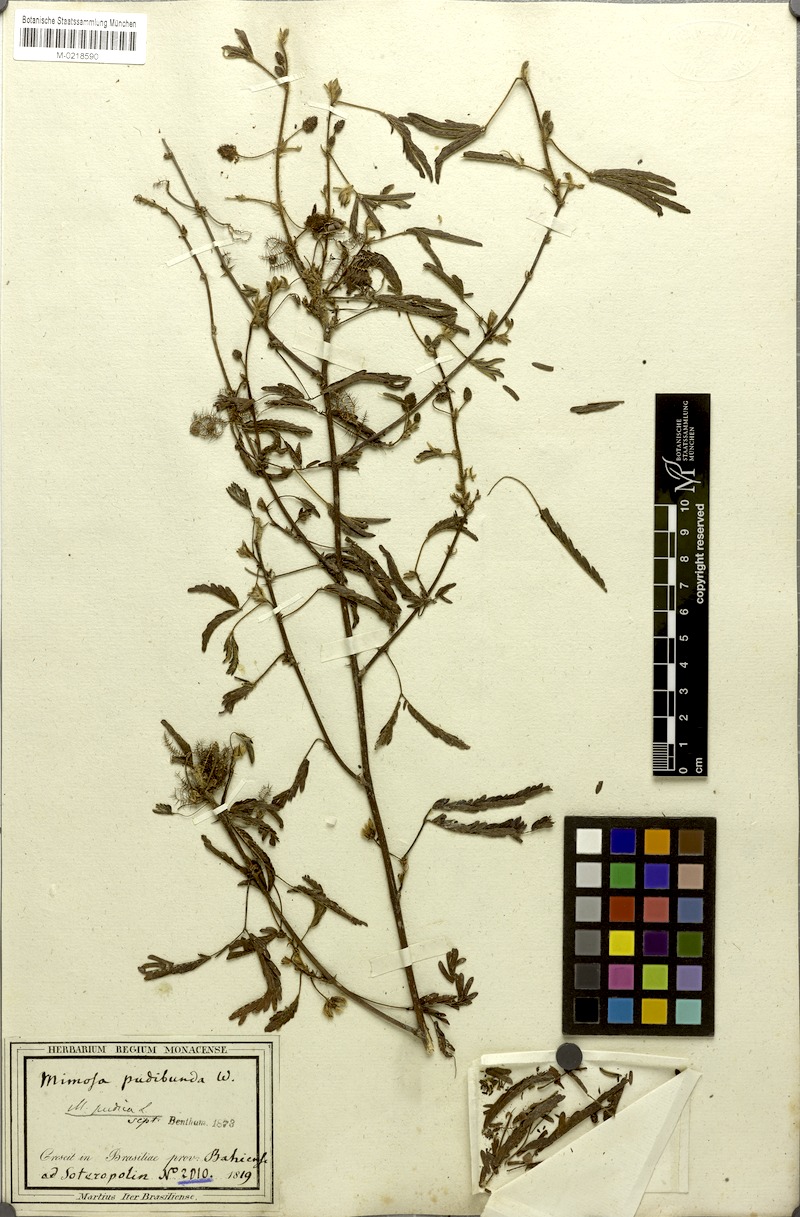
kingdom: Plantae
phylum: Tracheophyta
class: Magnoliopsida
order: Fabales
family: Fabaceae
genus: Mimosa
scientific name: Mimosa pudica
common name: Sensitive plant
